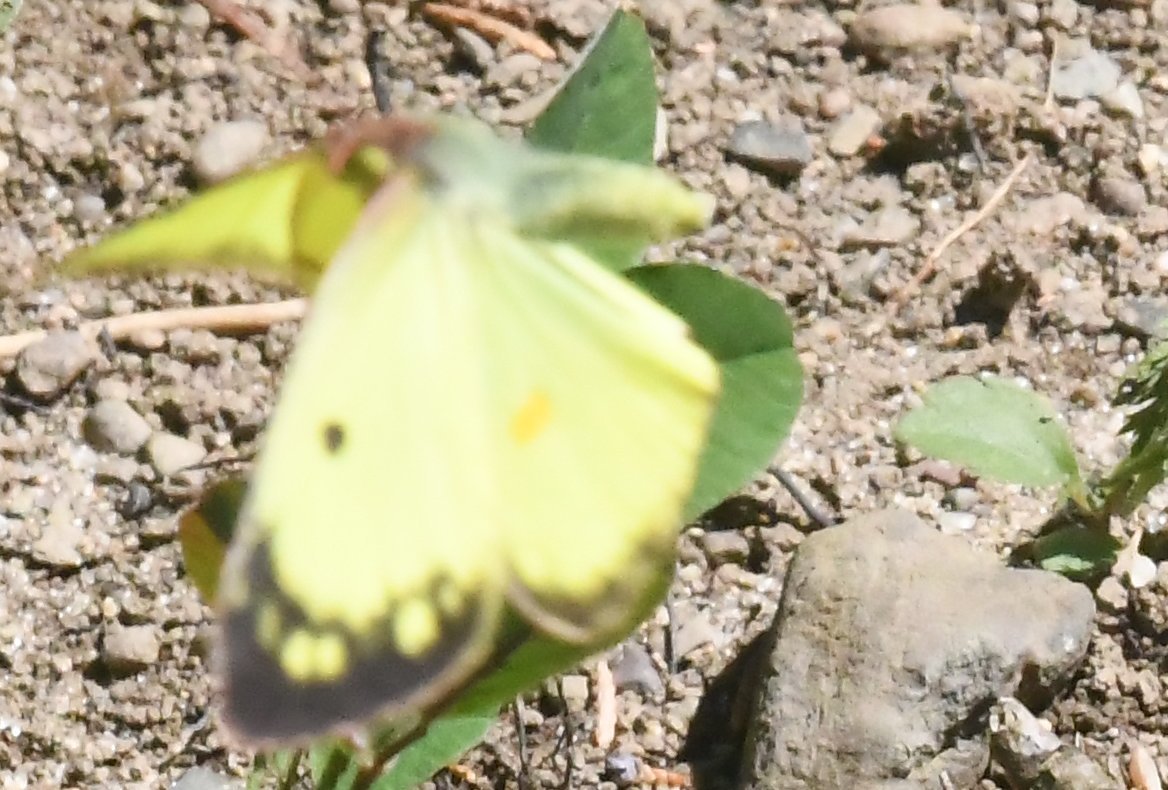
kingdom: Animalia
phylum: Arthropoda
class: Insecta
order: Lepidoptera
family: Pieridae
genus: Colias
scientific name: Colias philodice
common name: Clouded Sulphur
